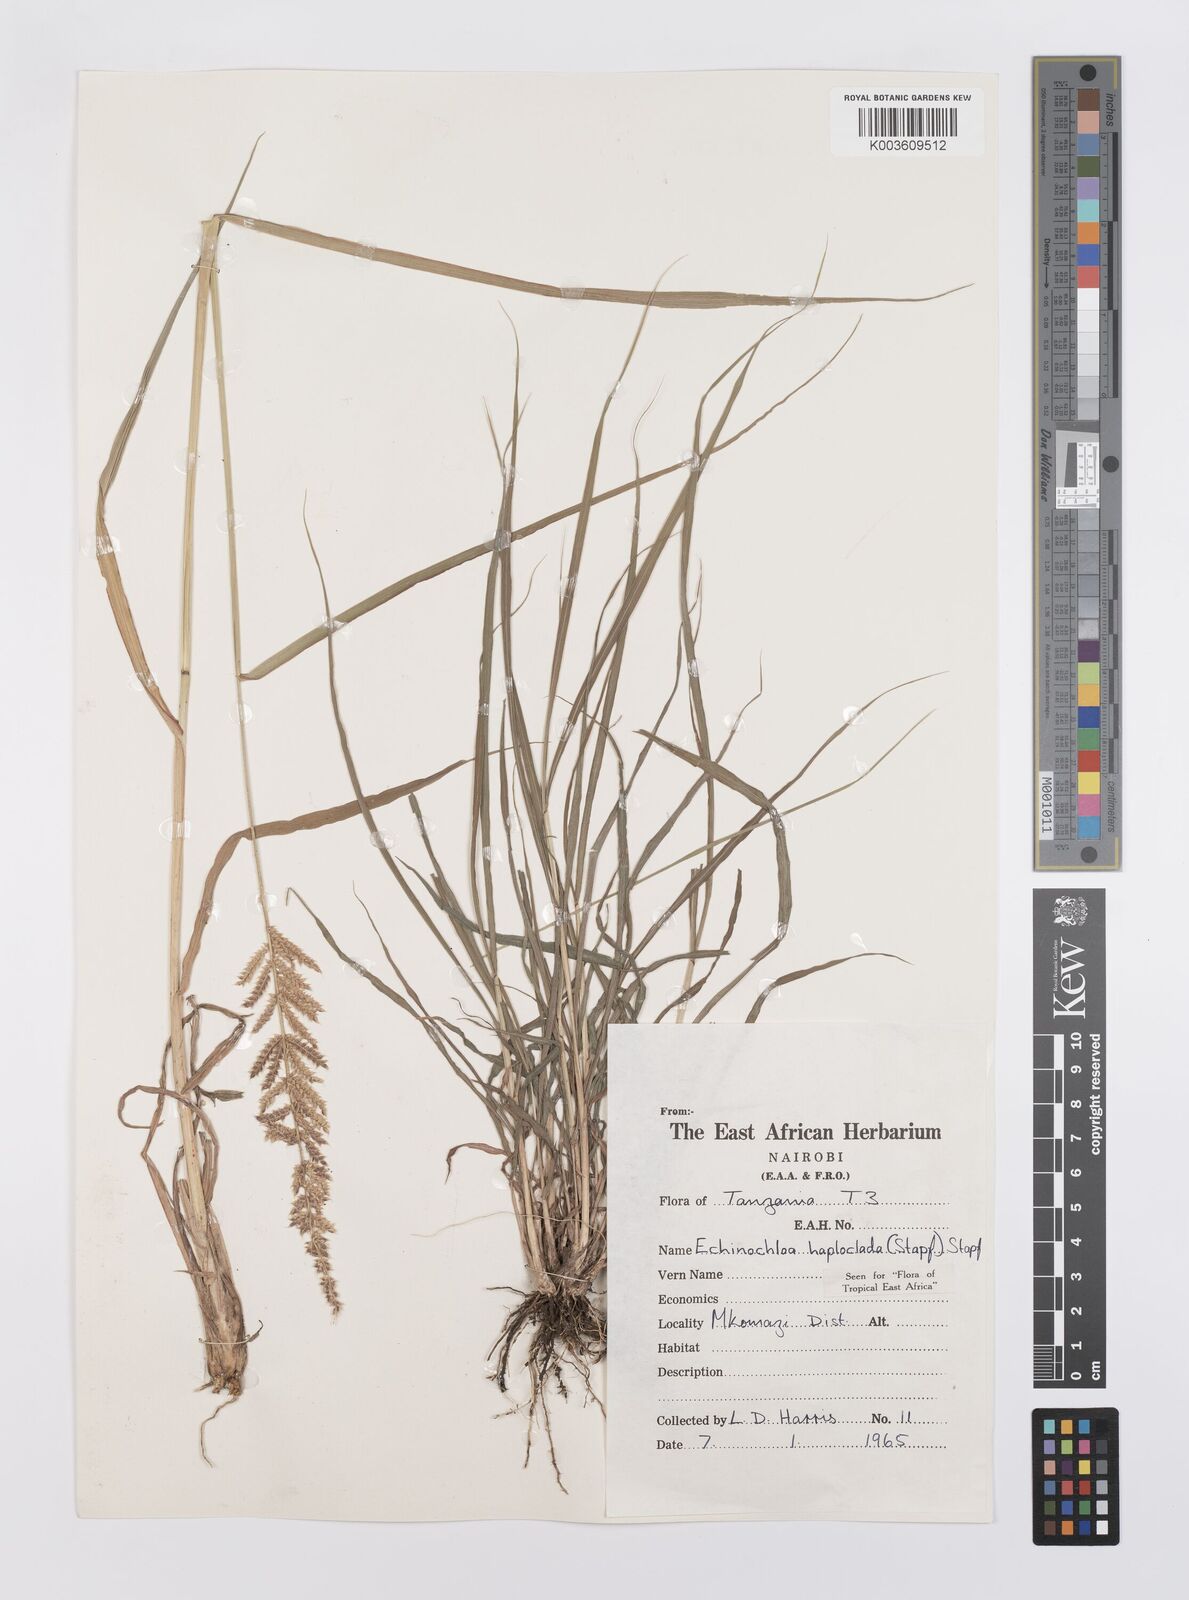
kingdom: Plantae
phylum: Tracheophyta
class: Liliopsida
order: Poales
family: Poaceae
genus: Echinochloa
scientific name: Echinochloa haploclada
